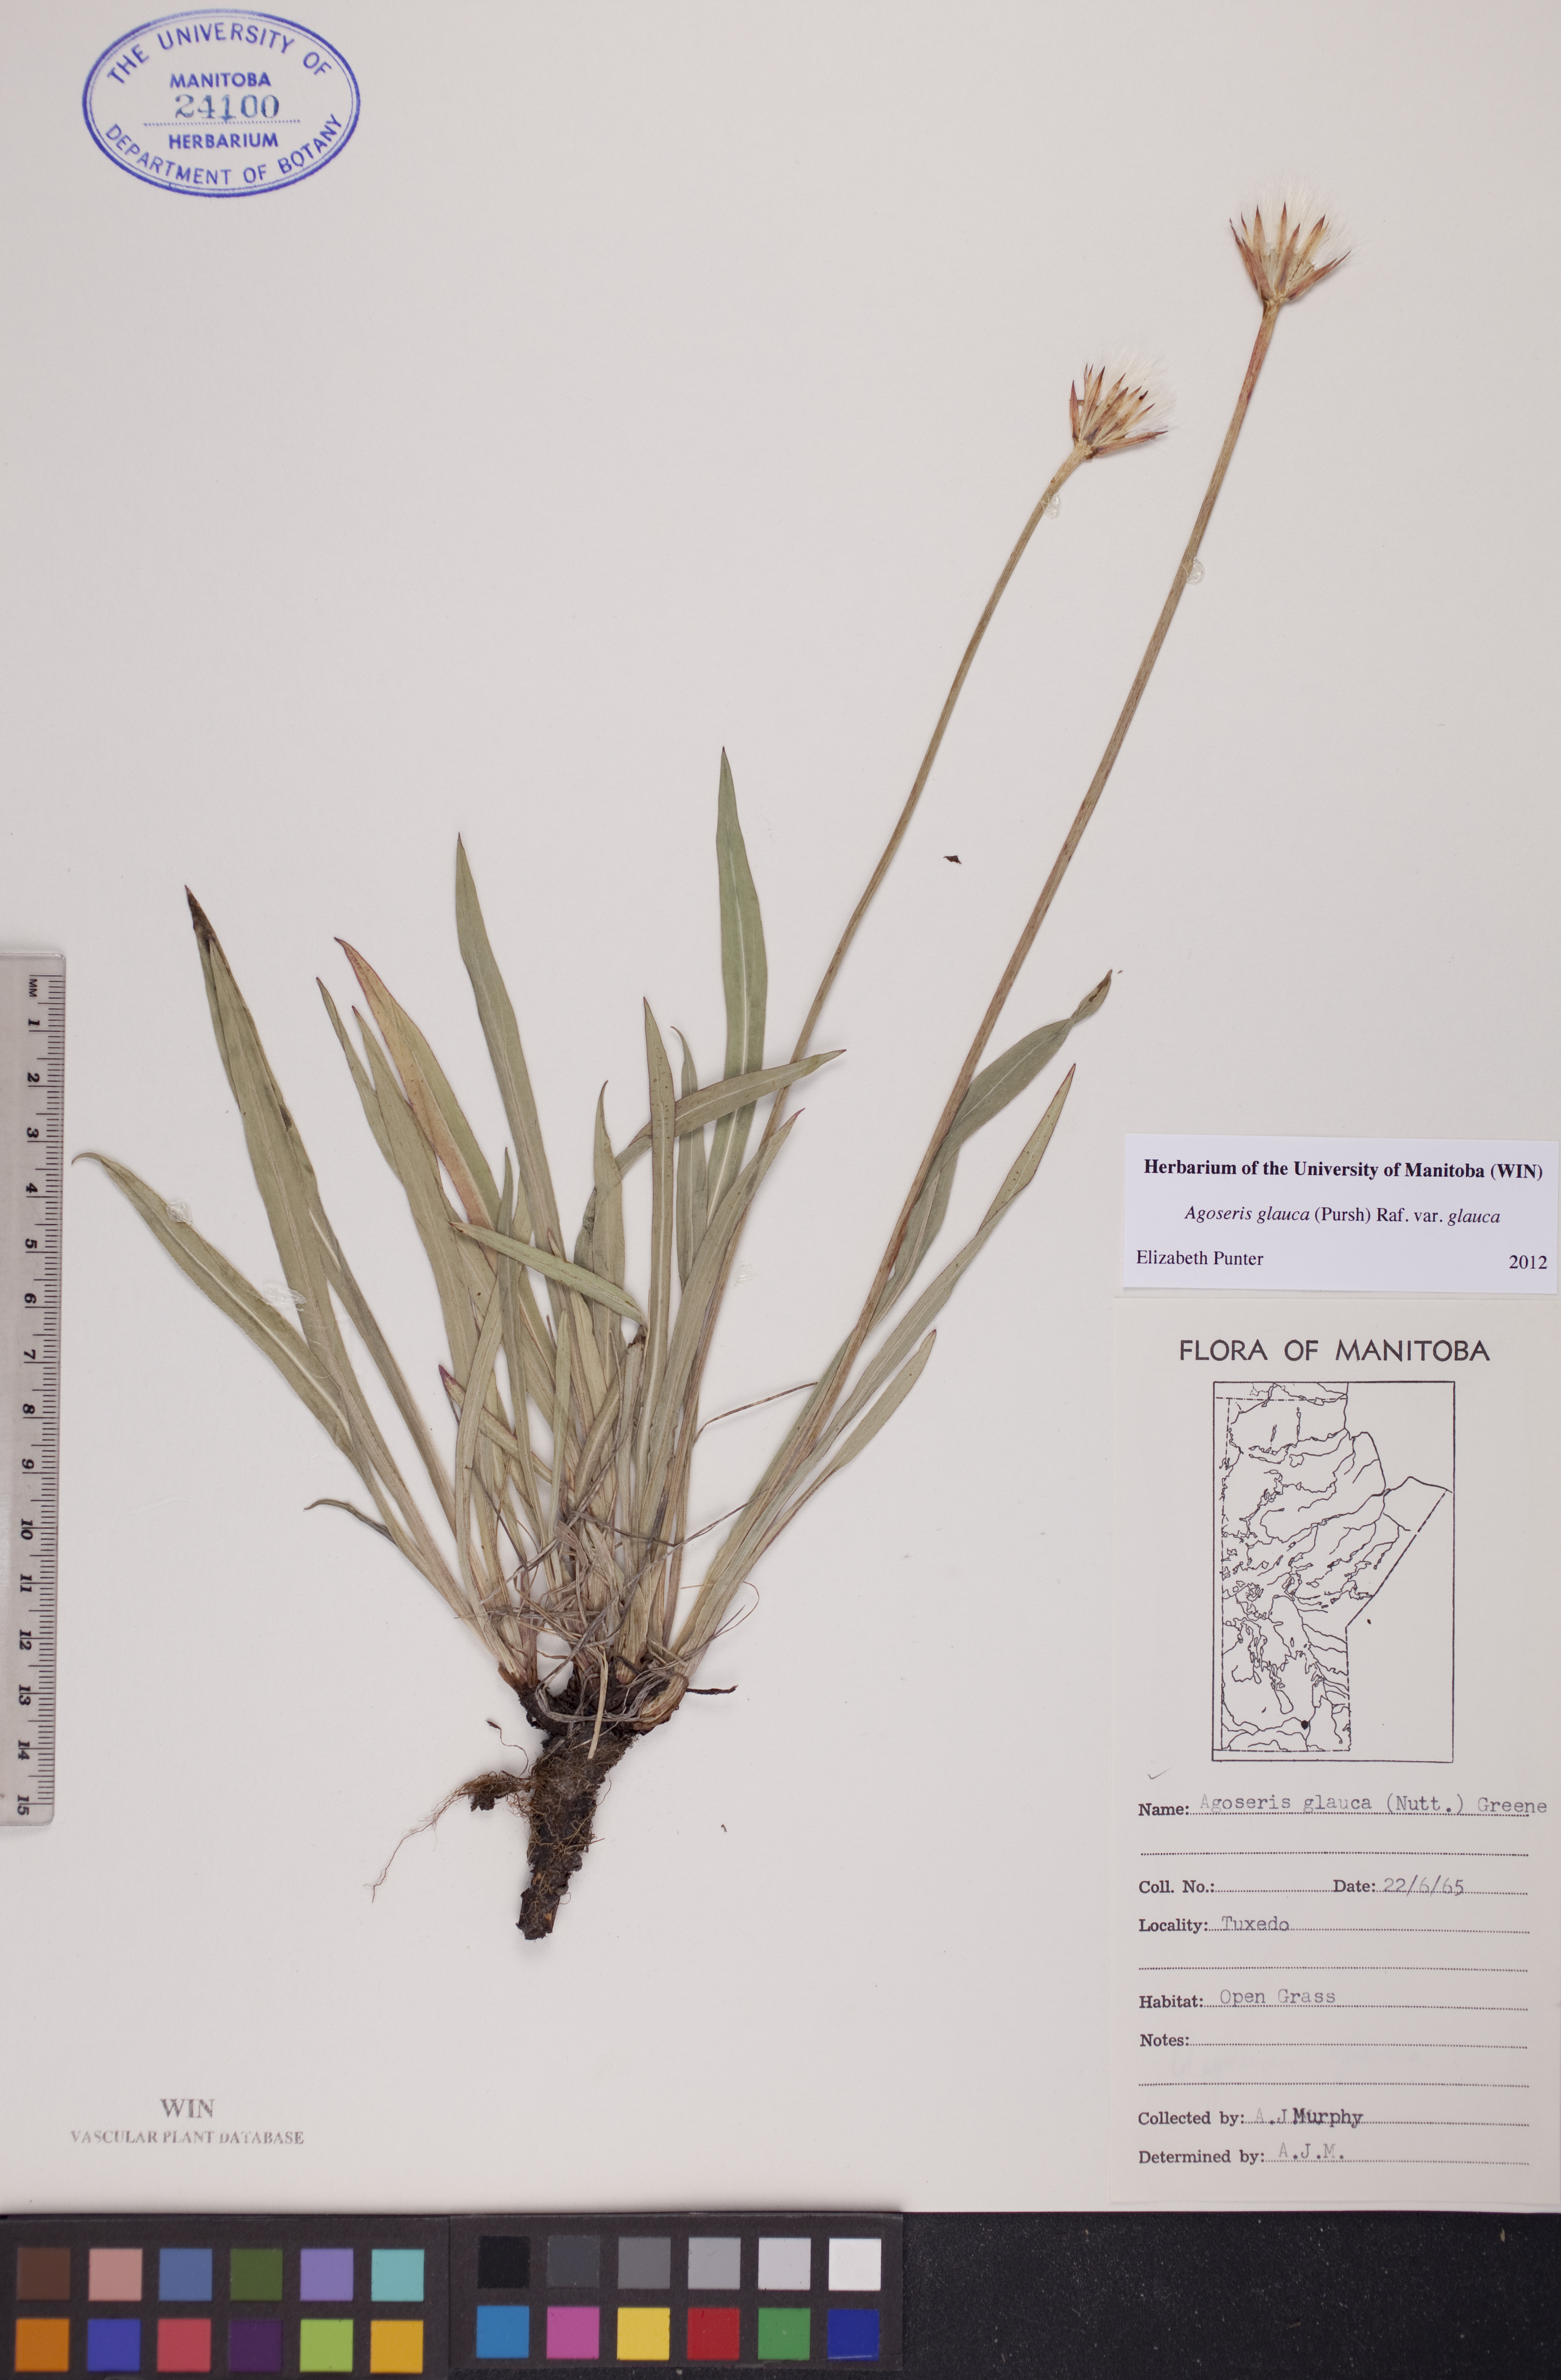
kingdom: Plantae
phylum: Tracheophyta
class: Magnoliopsida
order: Asterales
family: Asteraceae
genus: Agoseris
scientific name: Agoseris glauca
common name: Prairie agoseris
